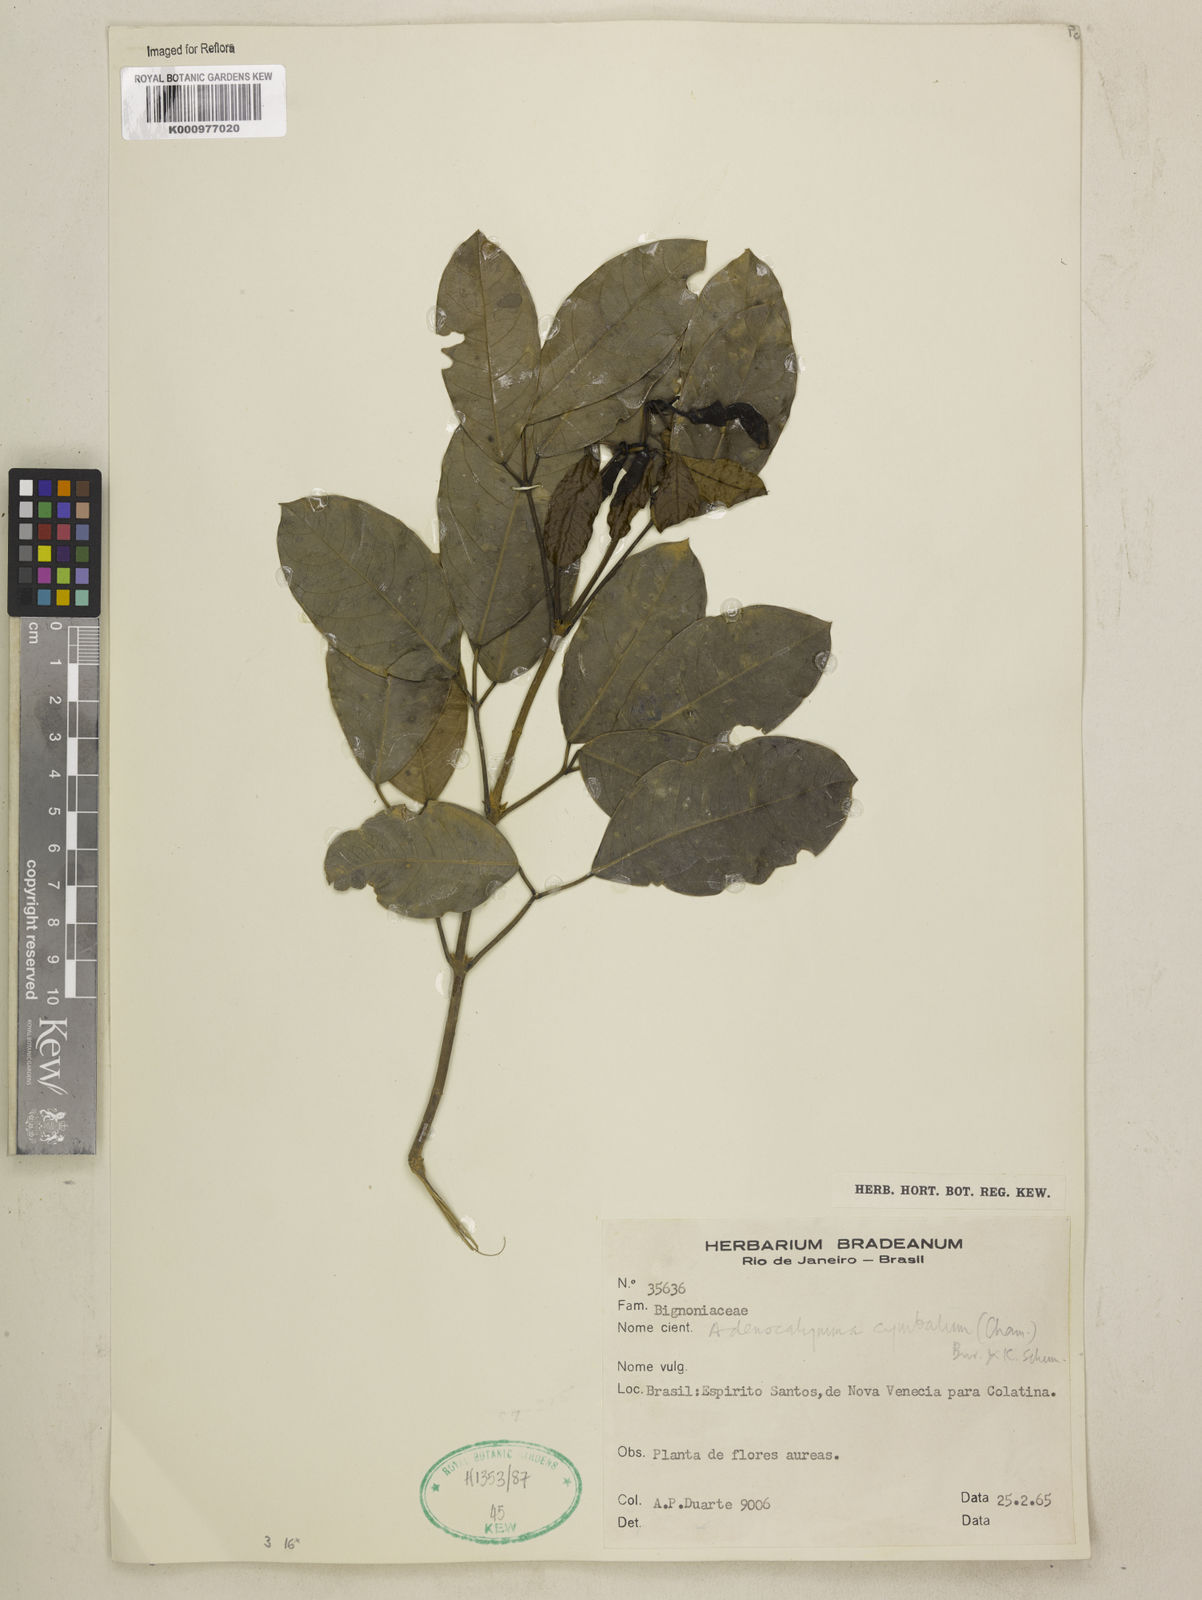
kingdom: Plantae
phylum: Tracheophyta
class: Magnoliopsida
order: Lamiales
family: Bignoniaceae
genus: Adenocalymma
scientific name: Adenocalymma cymbalum
